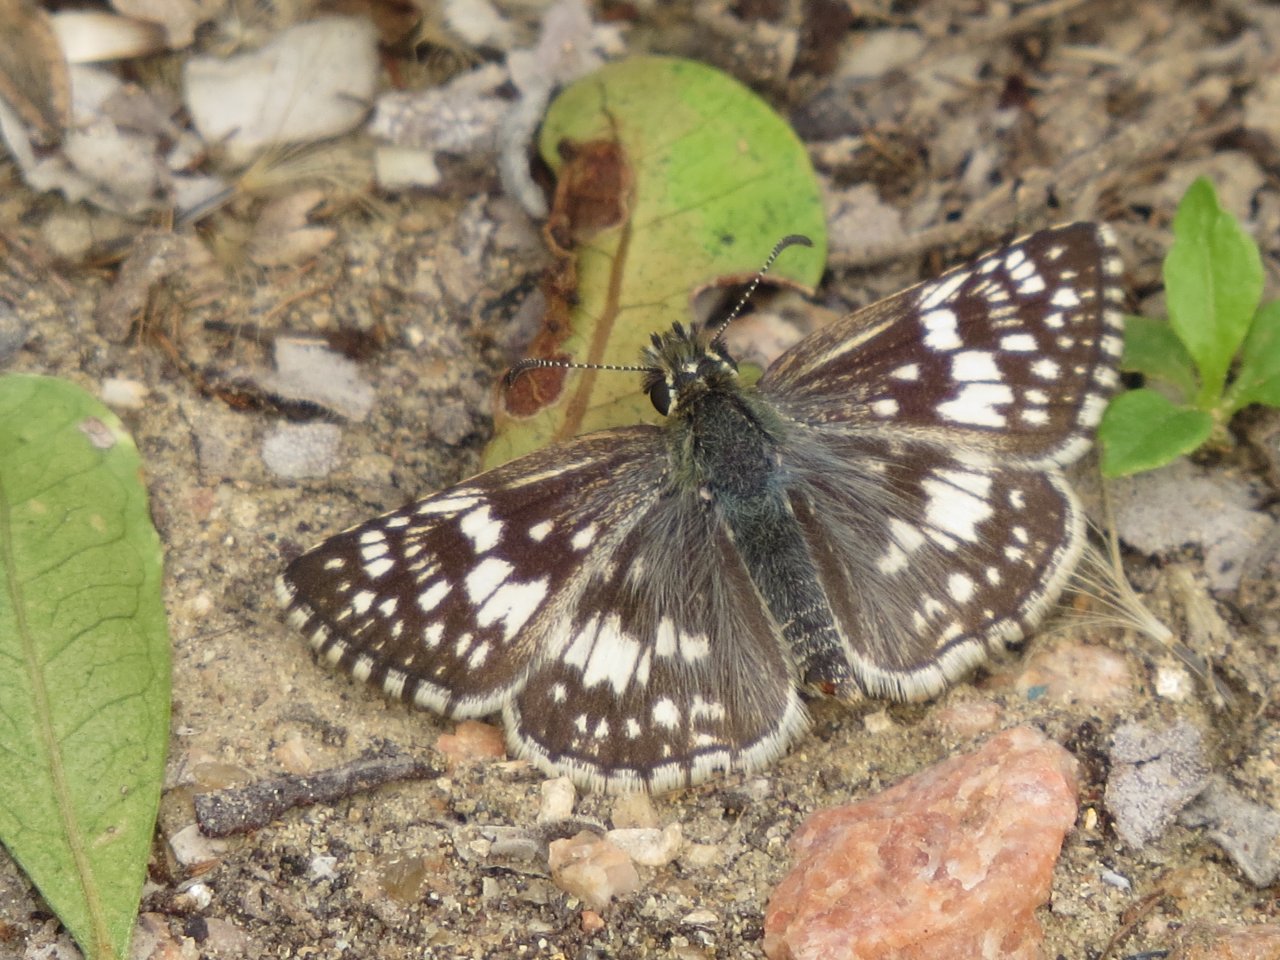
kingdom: Animalia
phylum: Arthropoda
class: Insecta
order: Lepidoptera
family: Hesperiidae
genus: Pyrgus
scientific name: Pyrgus communis
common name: Common Checkered-Skipper
